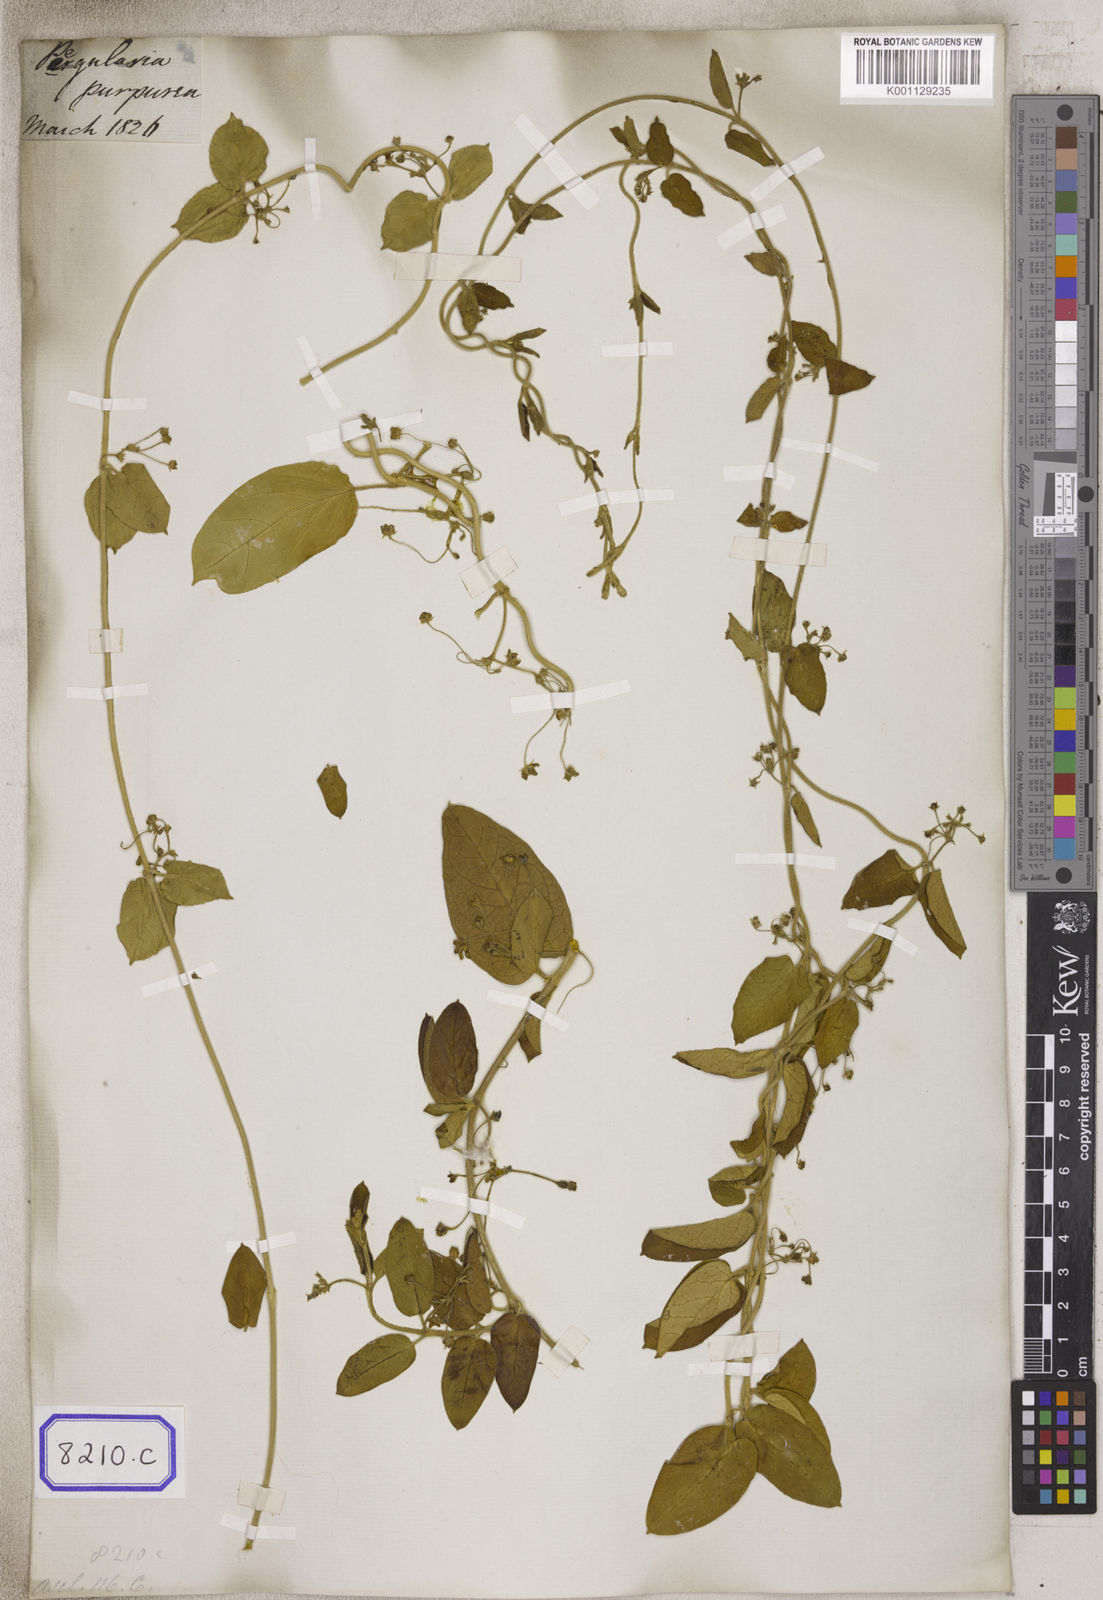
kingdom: Plantae
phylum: Tracheophyta
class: Magnoliopsida
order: Gentianales
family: Apocynaceae
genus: Vincetoxicum
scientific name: Vincetoxicum indicum
